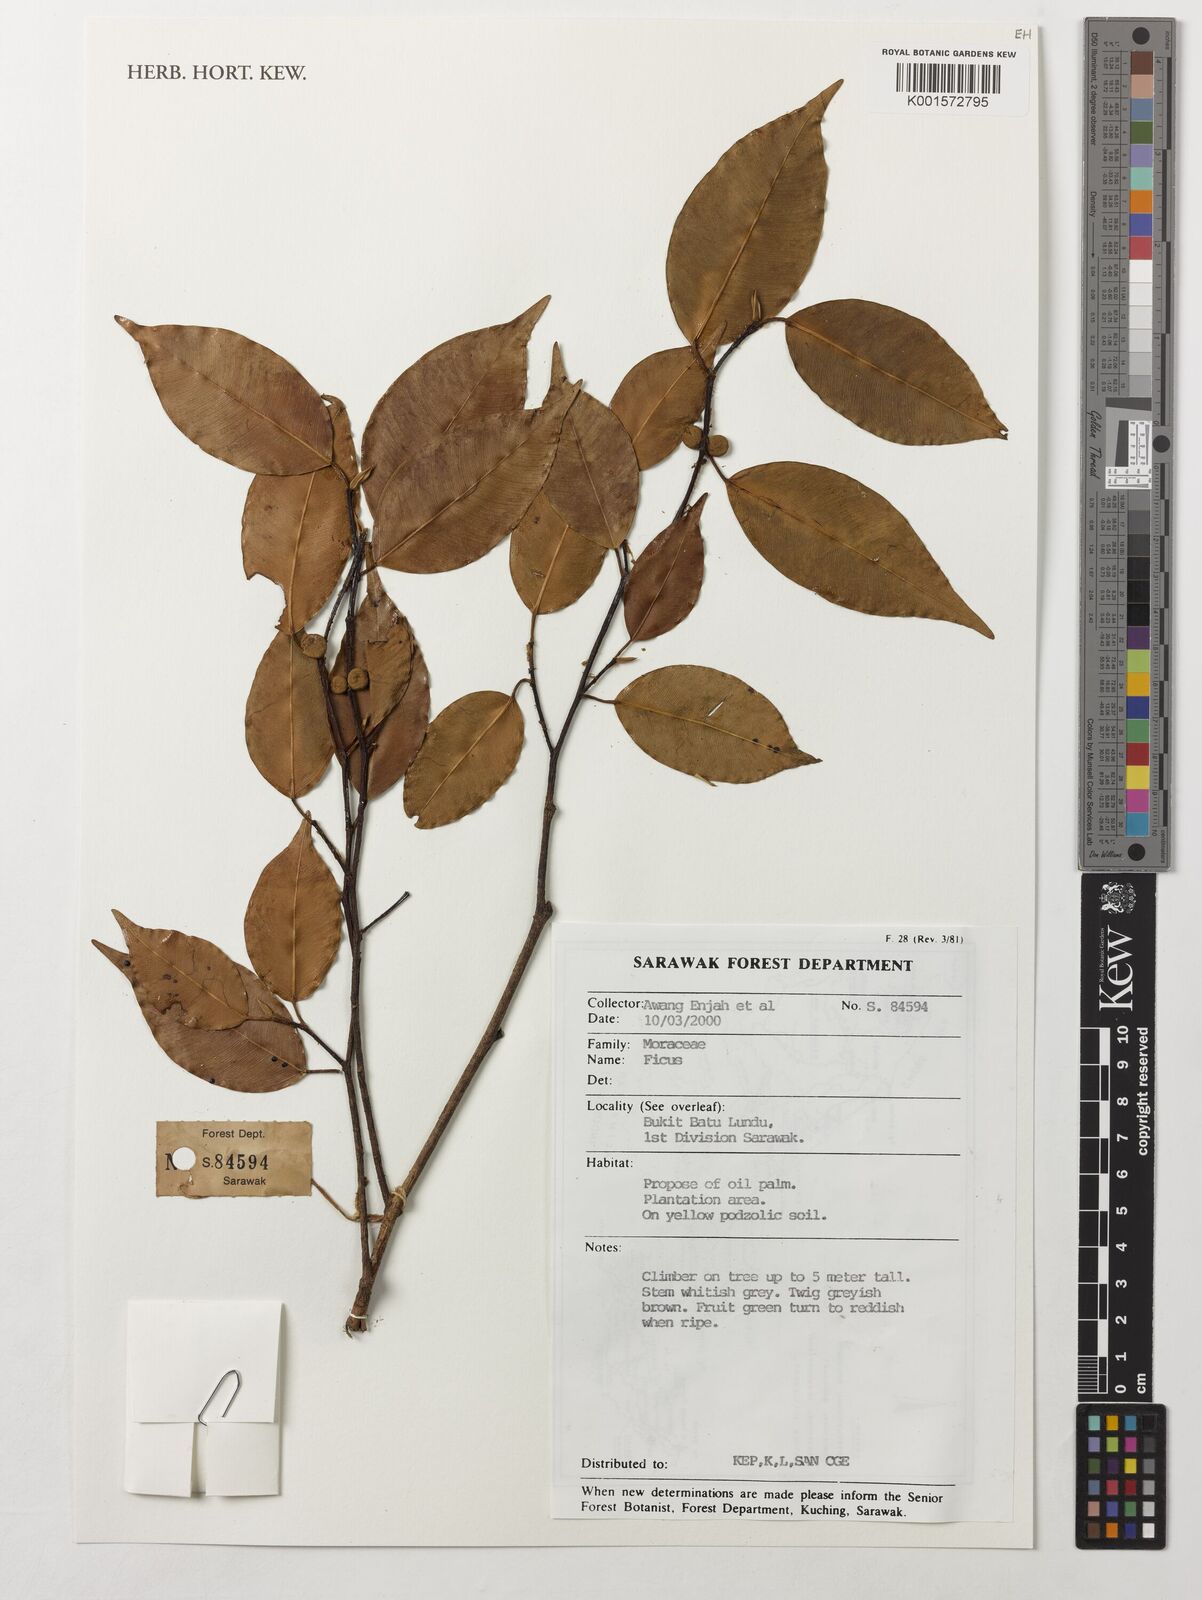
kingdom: Plantae
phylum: Tracheophyta
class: Magnoliopsida
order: Rosales
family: Moraceae
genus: Ficus
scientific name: Ficus
